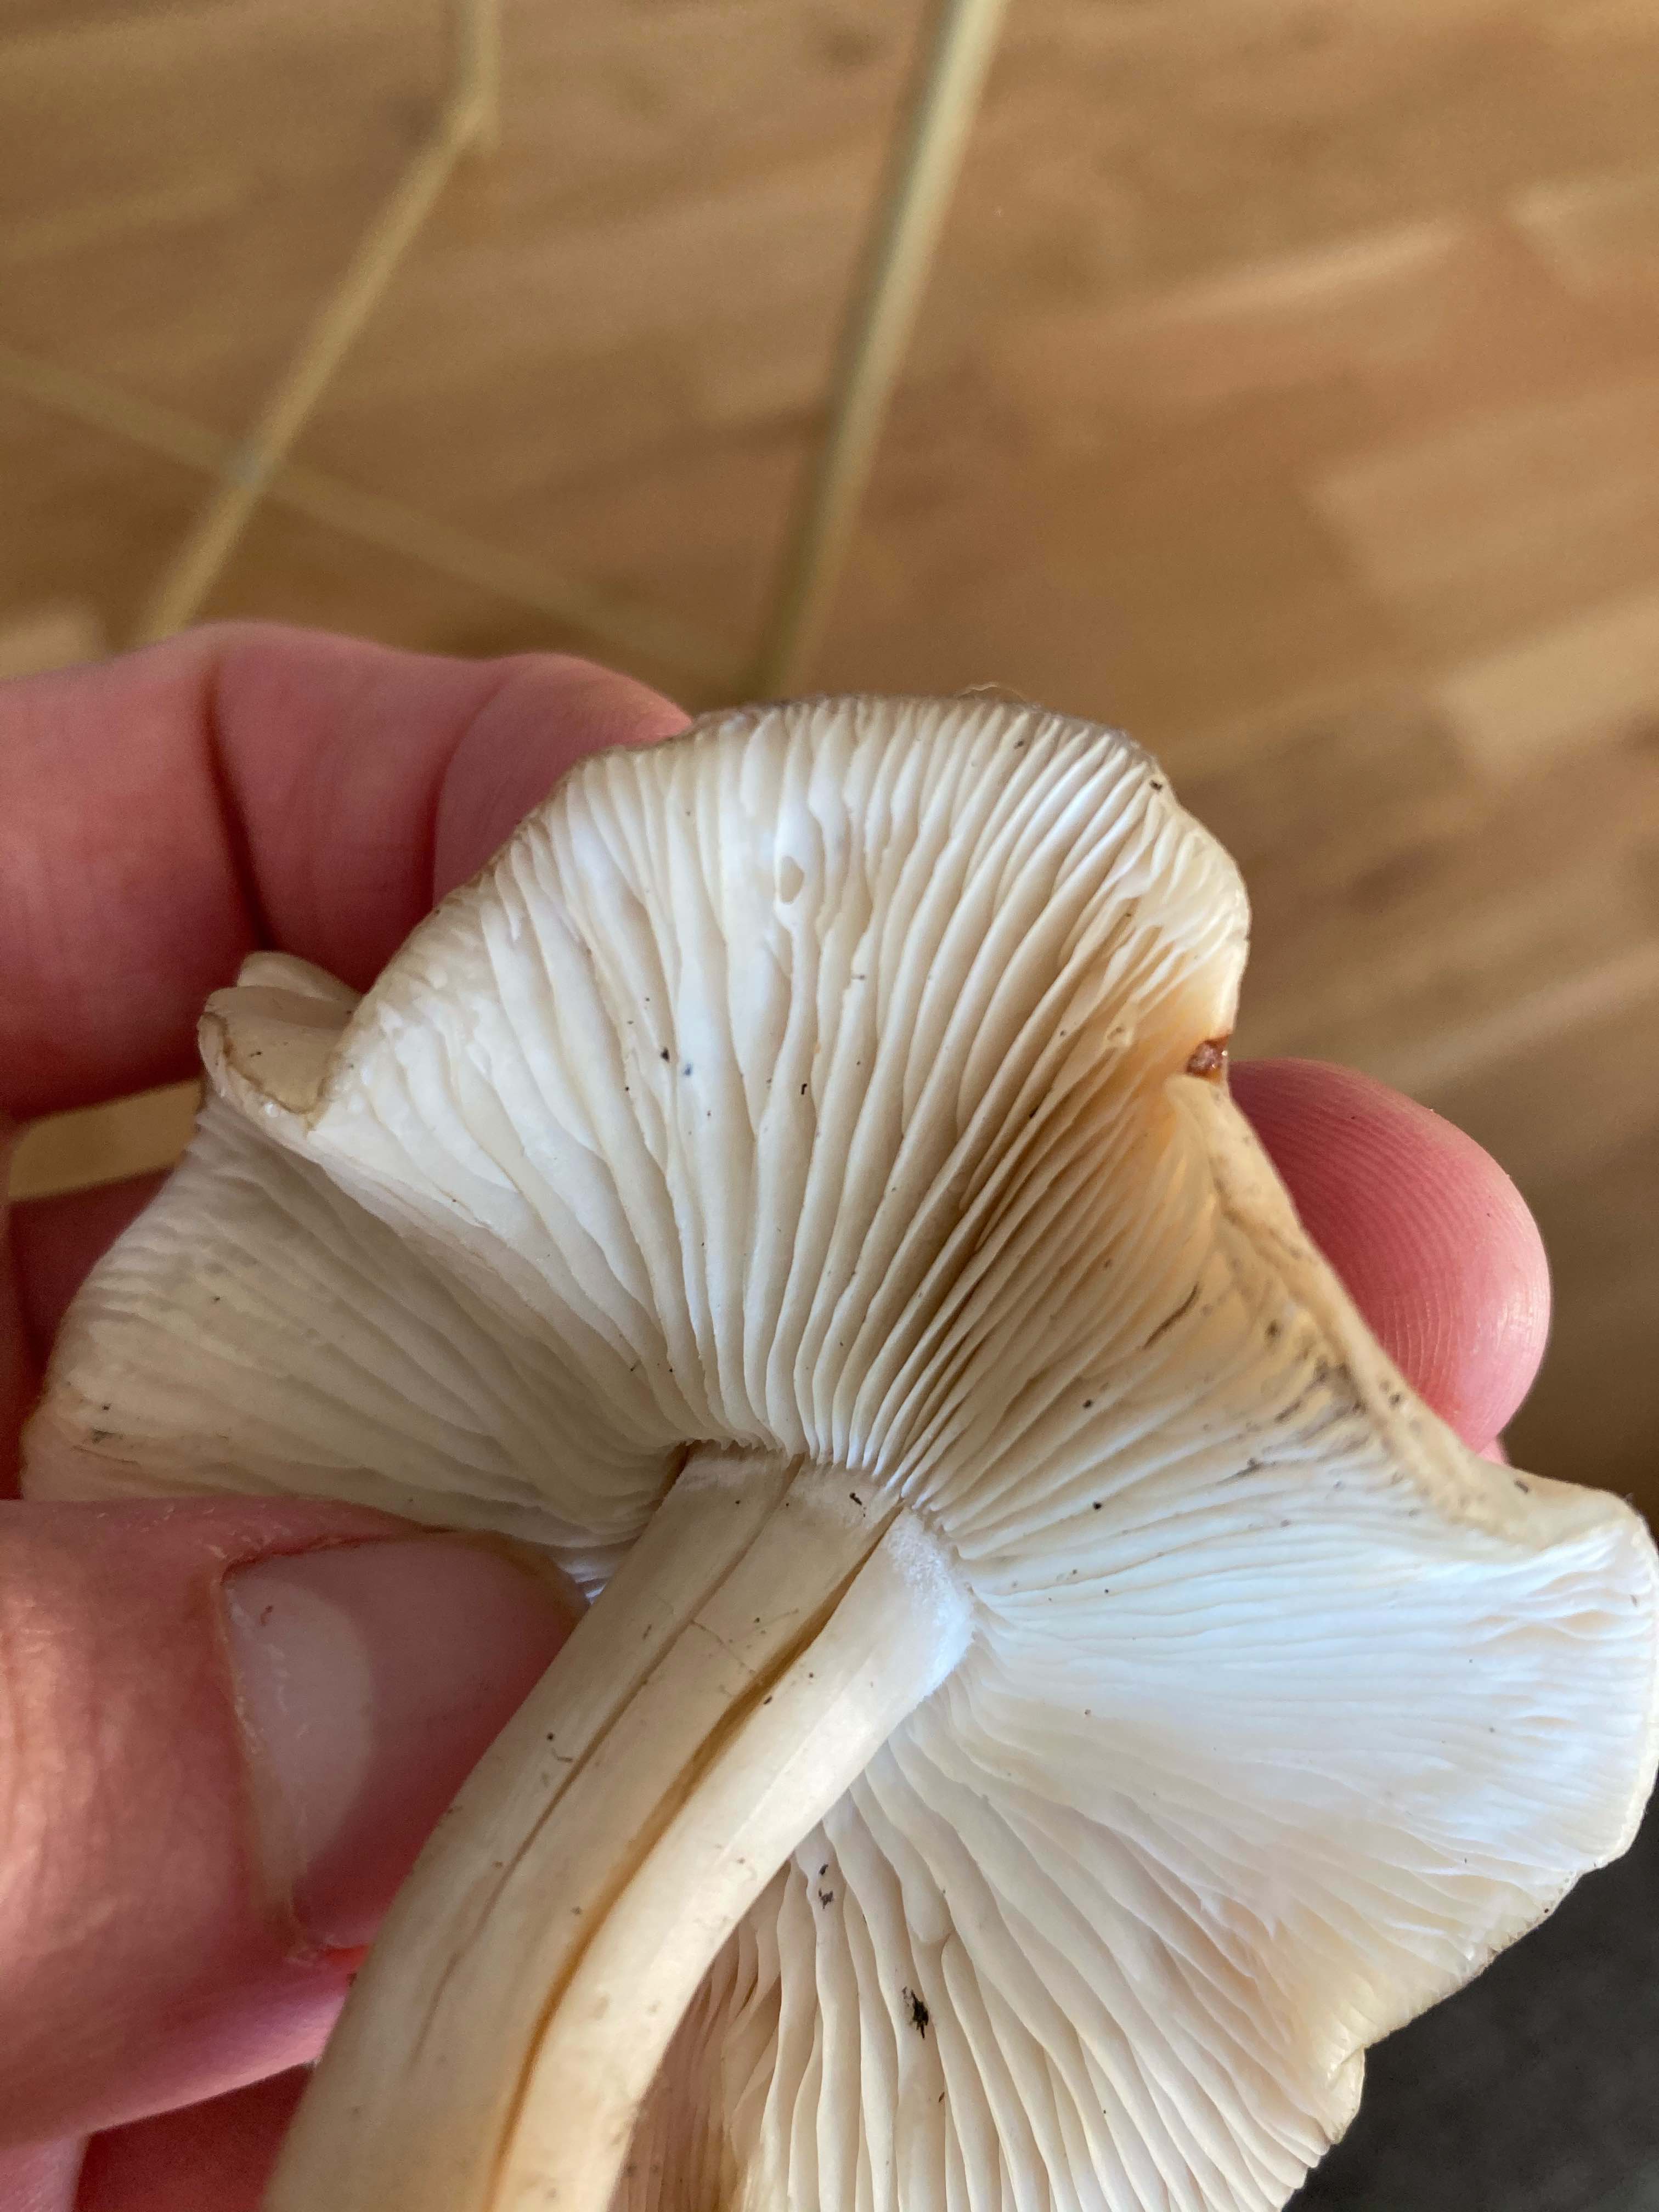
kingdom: Fungi
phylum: Basidiomycota
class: Agaricomycetes
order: Agaricales
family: Lyophyllaceae
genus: Lyophyllum
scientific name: Lyophyllum
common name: gråblad
